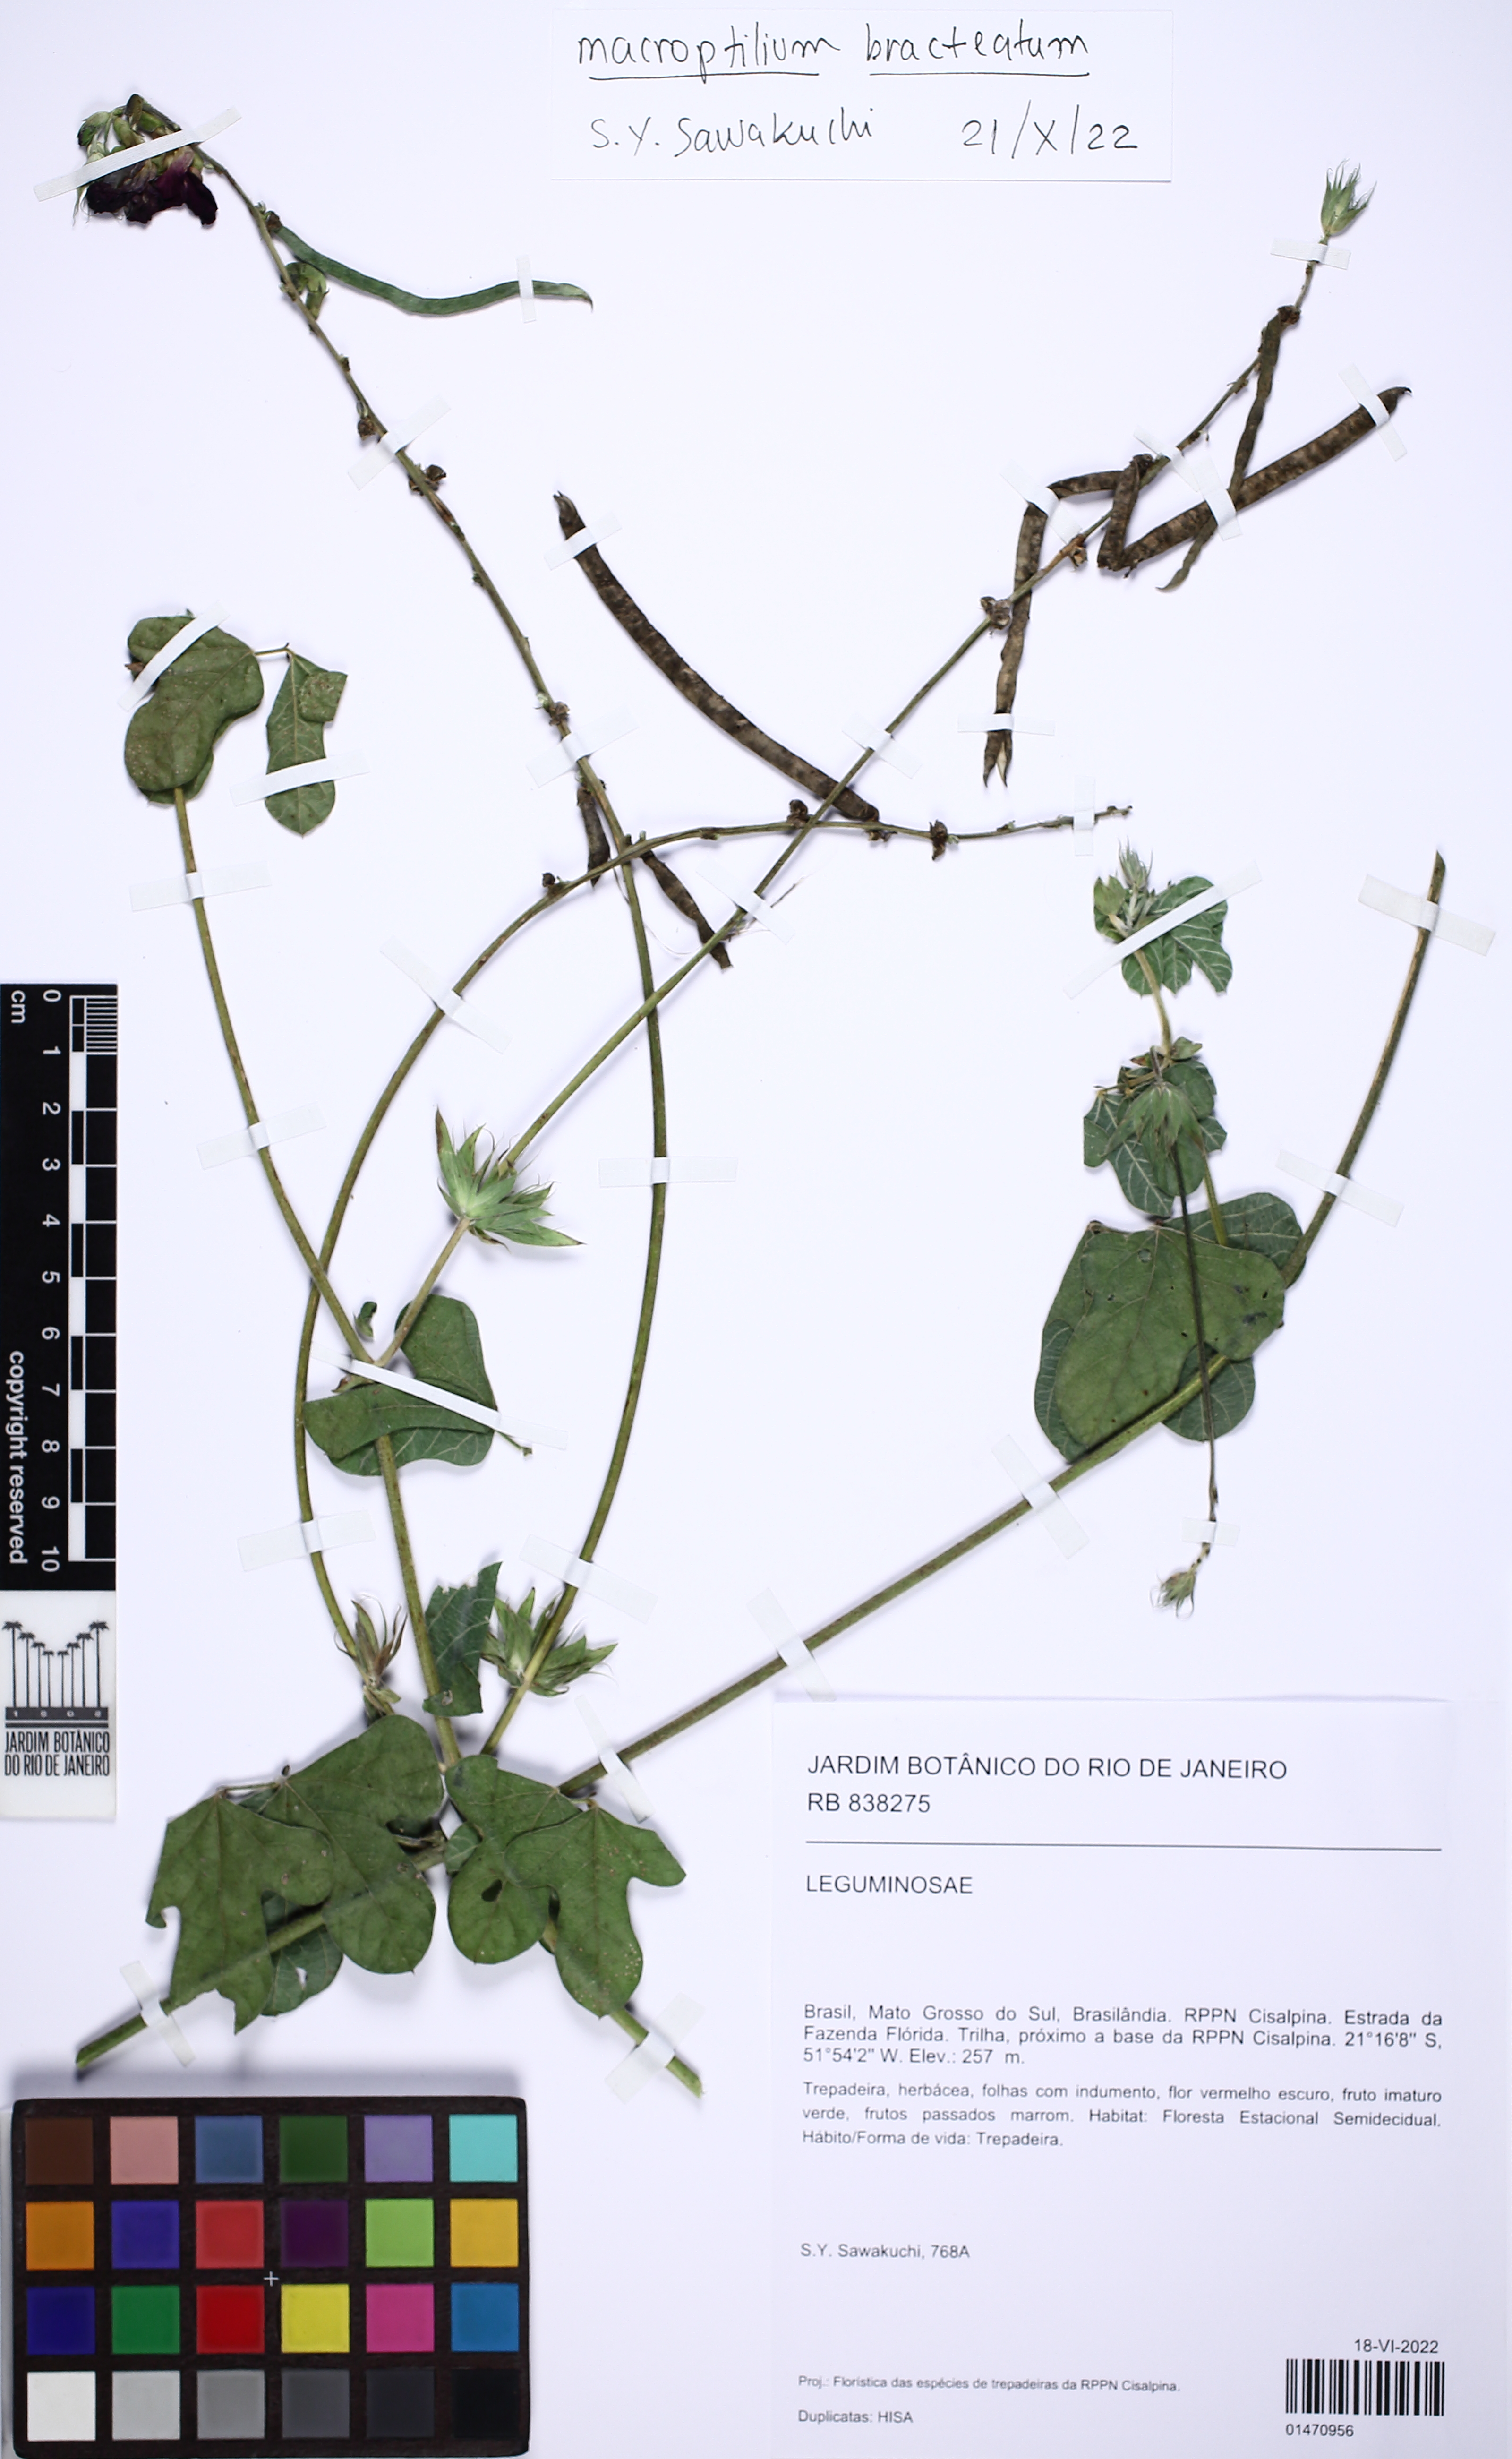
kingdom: Plantae
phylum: Tracheophyta
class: Magnoliopsida
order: Fabales
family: Fabaceae
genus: Macroptilium
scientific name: Macroptilium bracteatum
